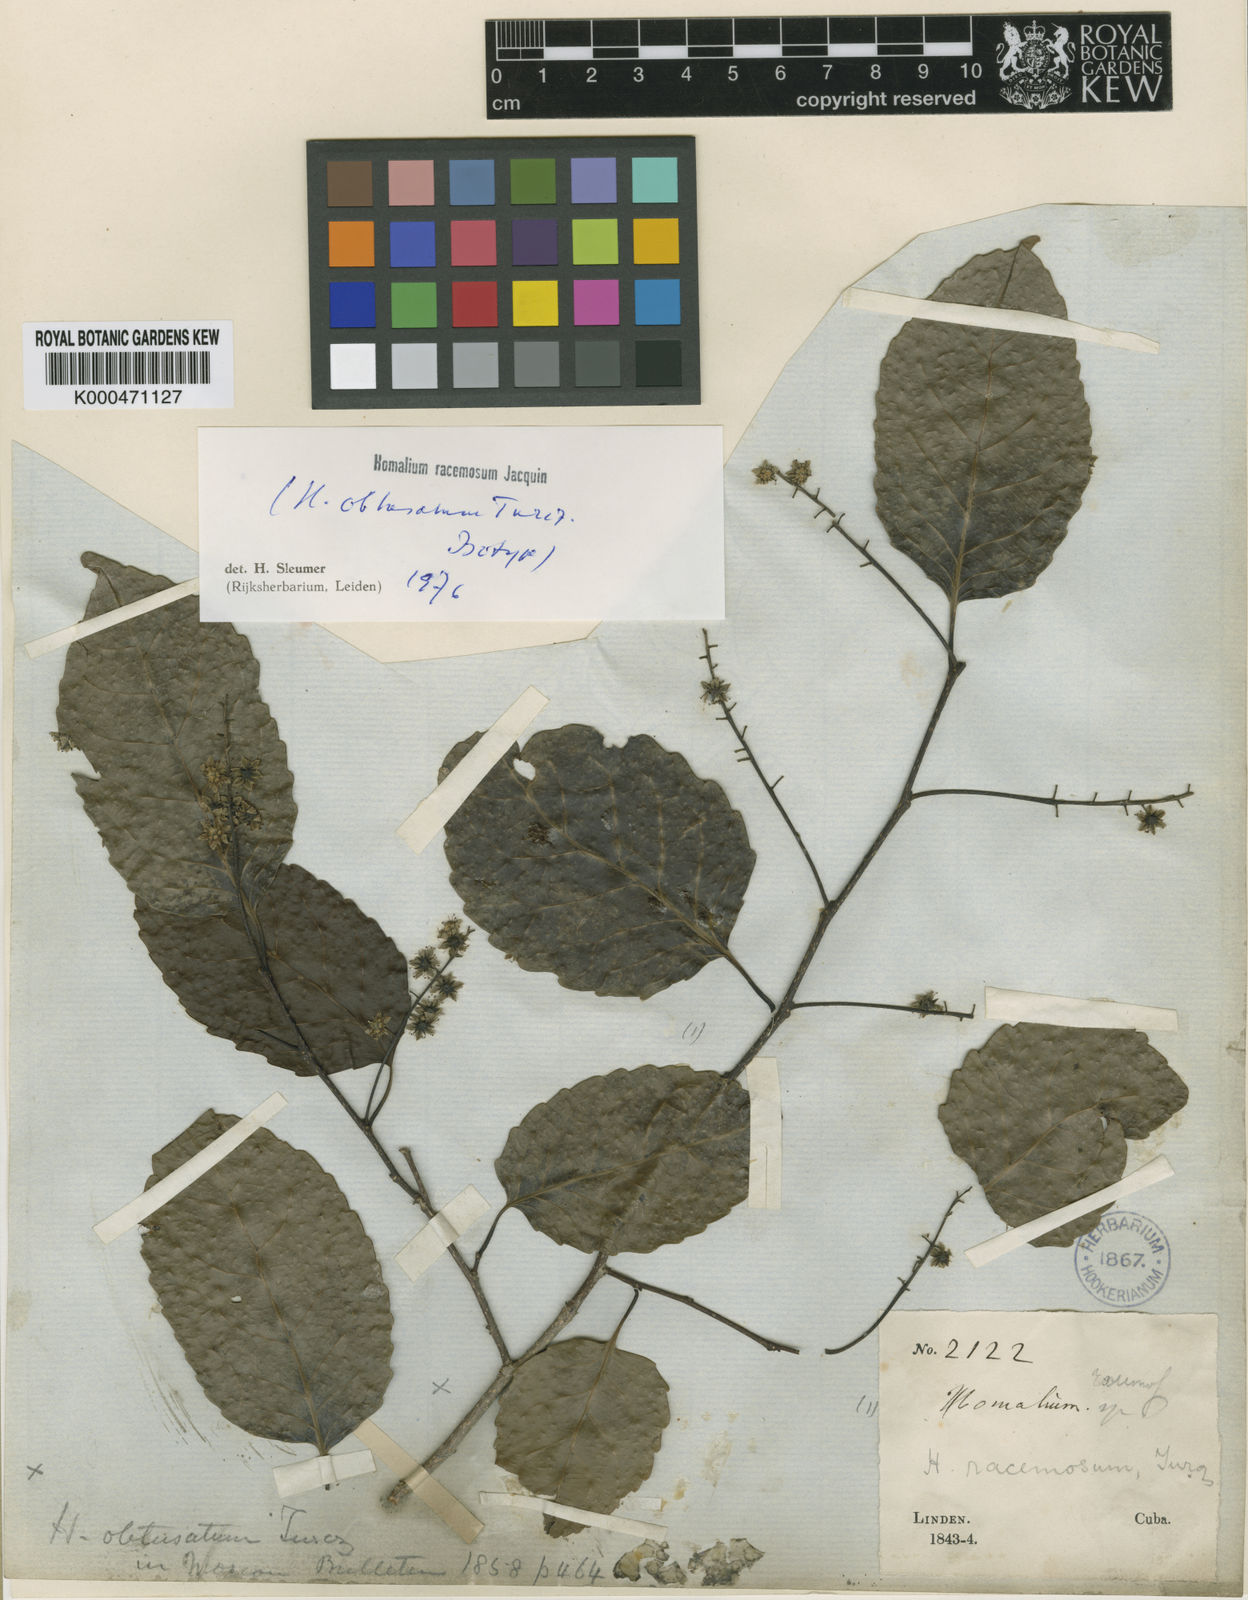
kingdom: Plantae
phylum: Tracheophyta
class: Magnoliopsida
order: Malpighiales
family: Salicaceae
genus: Homalium
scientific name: Homalium racemosum
